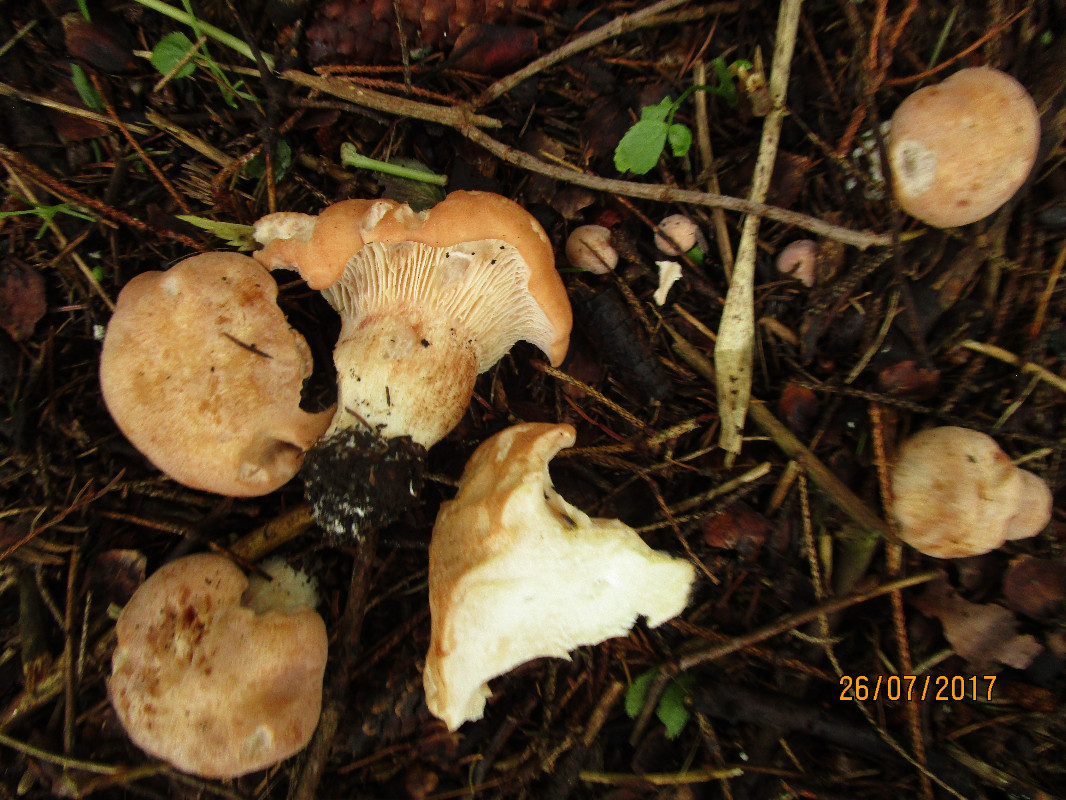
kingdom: Fungi
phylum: Basidiomycota
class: Agaricomycetes
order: Agaricales
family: Entolomataceae
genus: Clitopilus
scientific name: Clitopilus geminus
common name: kødfarvet troldhat
